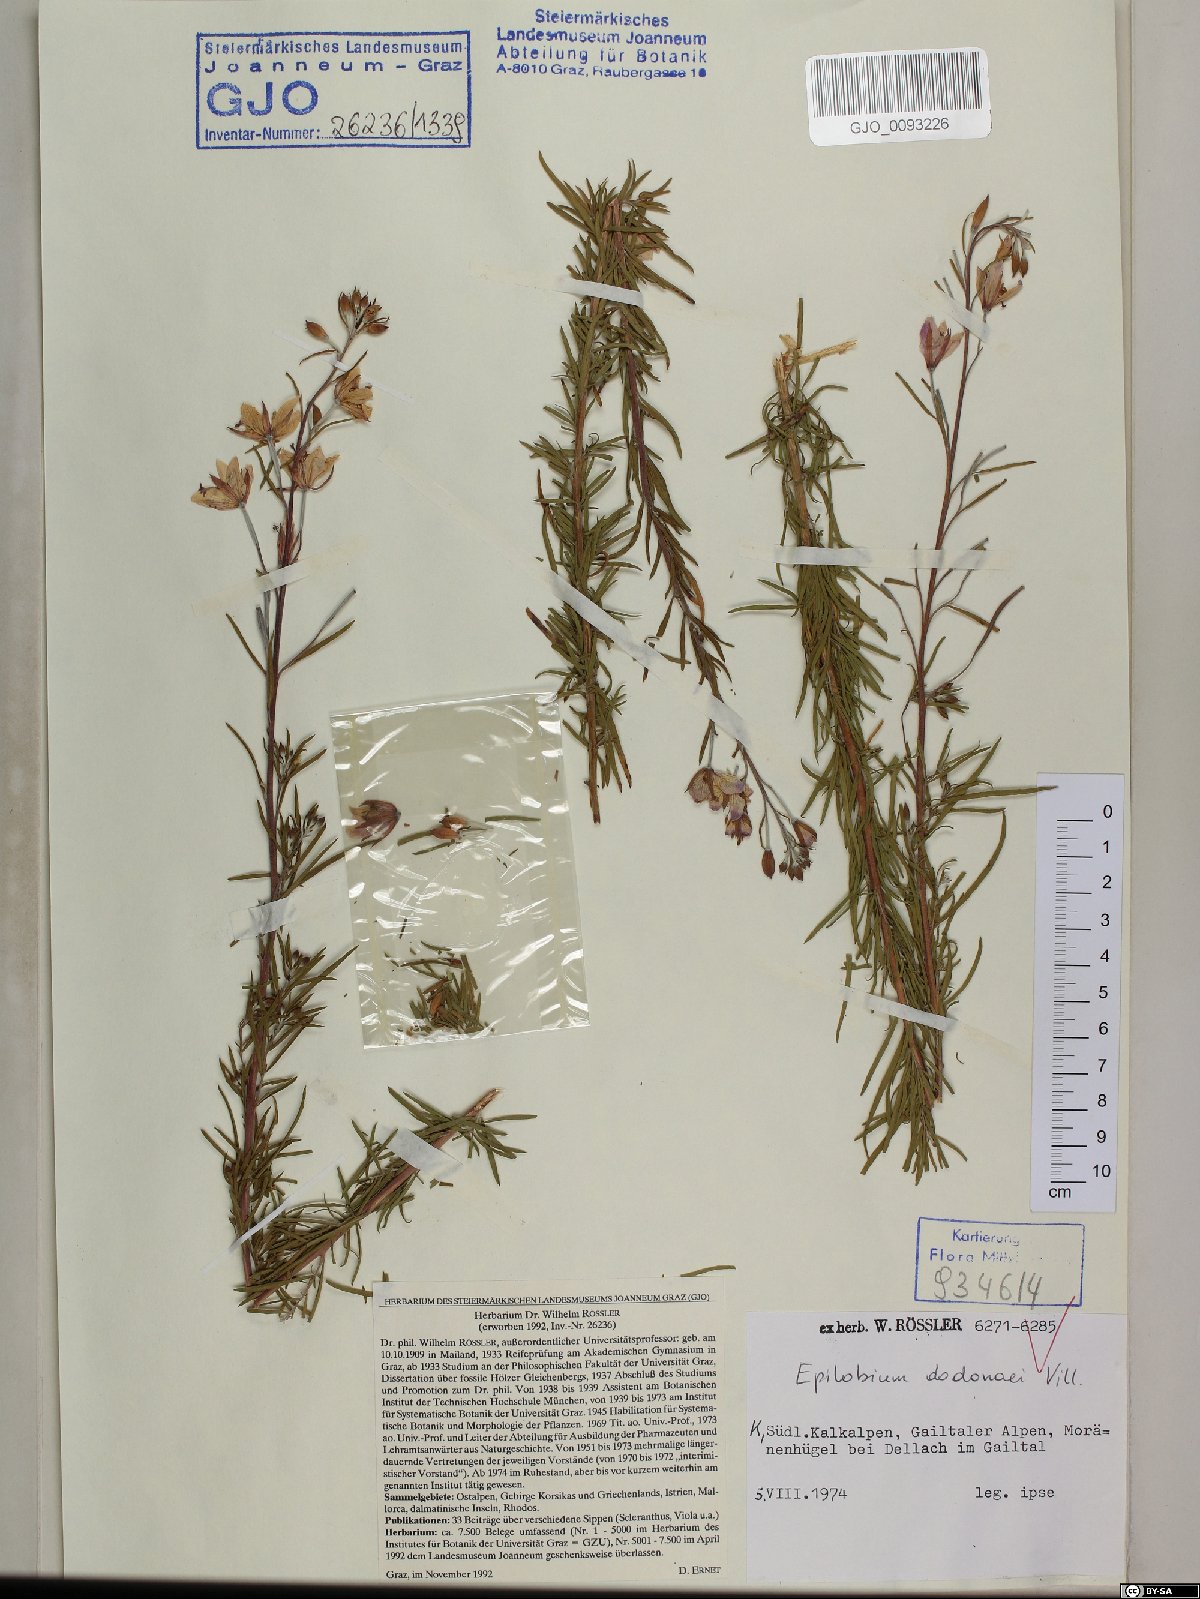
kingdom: Plantae
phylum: Tracheophyta
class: Magnoliopsida
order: Myrtales
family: Onagraceae
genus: Chamaenerion
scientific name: Chamaenerion dodonaei
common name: Rosemary-leaved willowherb
